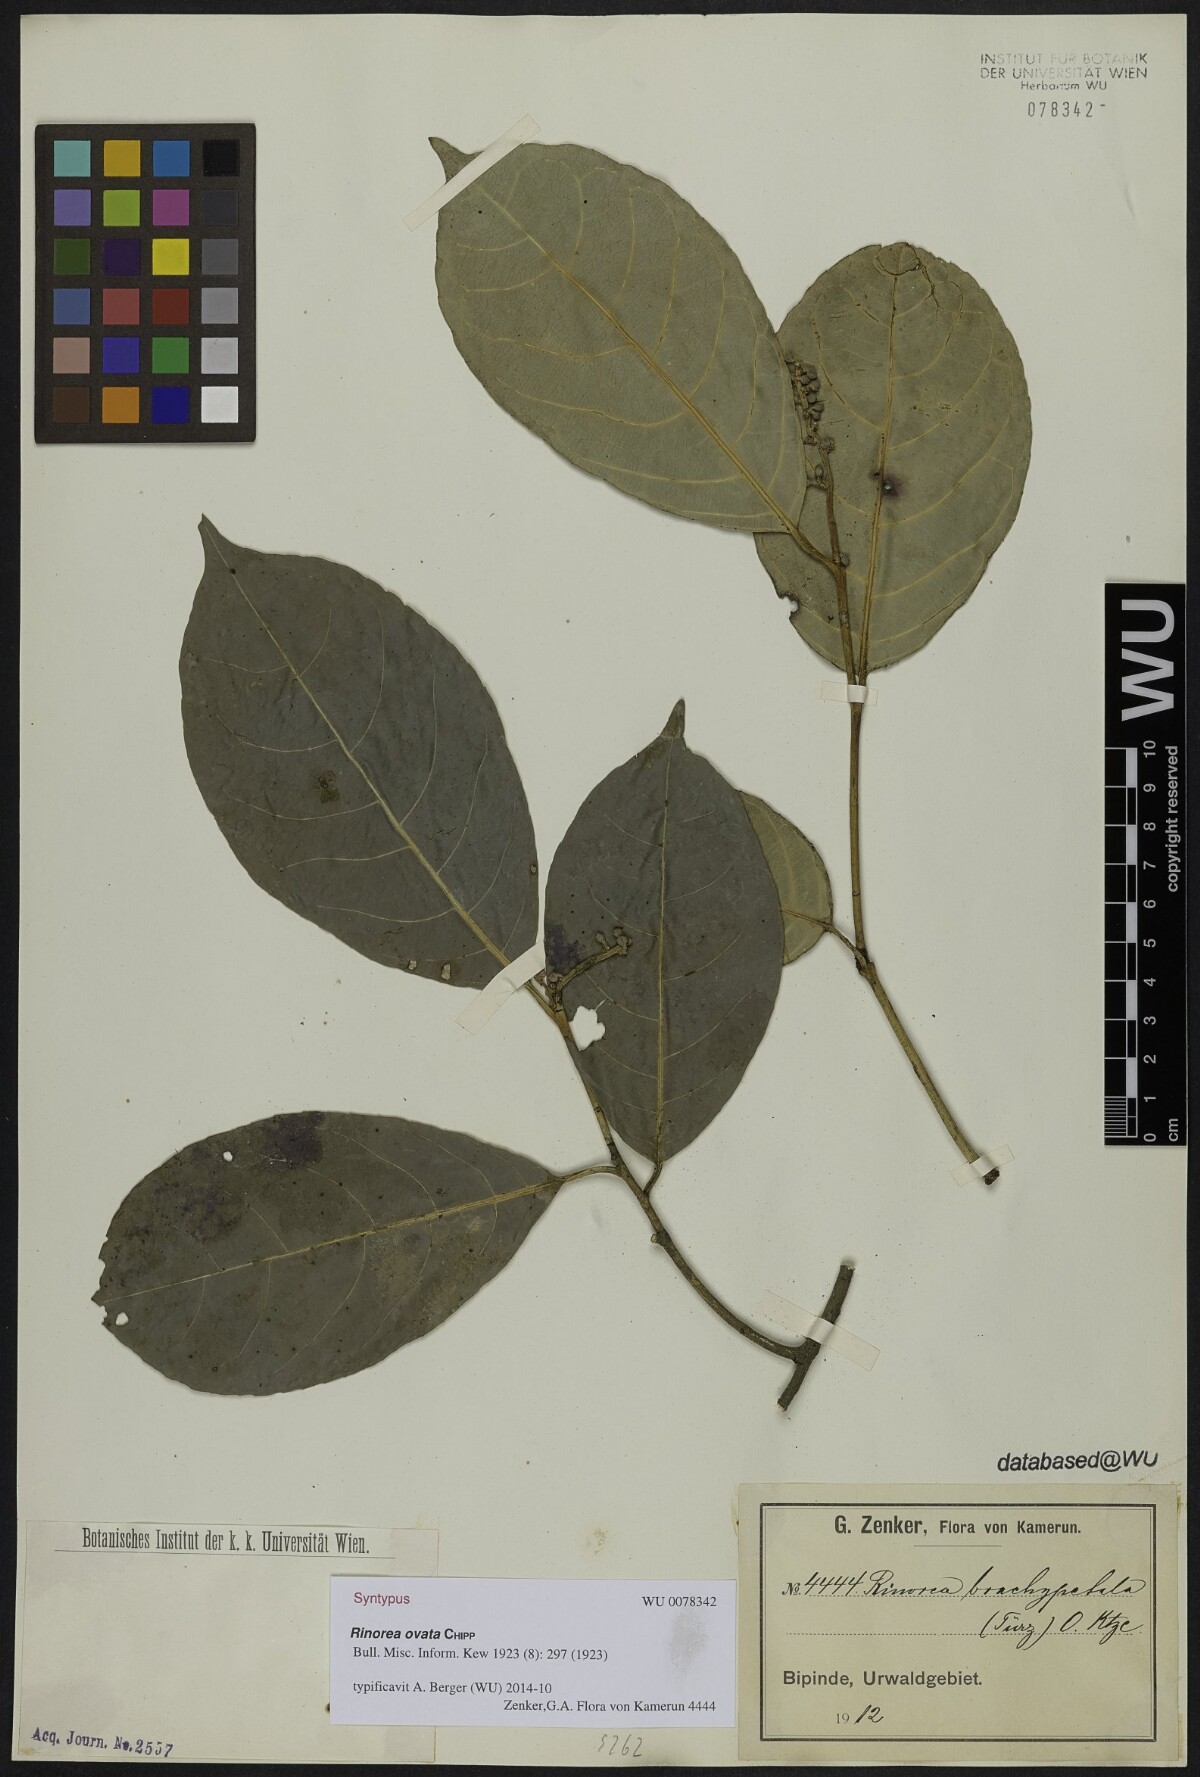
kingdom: Plantae
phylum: Tracheophyta
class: Magnoliopsida
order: Malpighiales
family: Violaceae
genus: Rinorea
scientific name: Rinorea ovata
